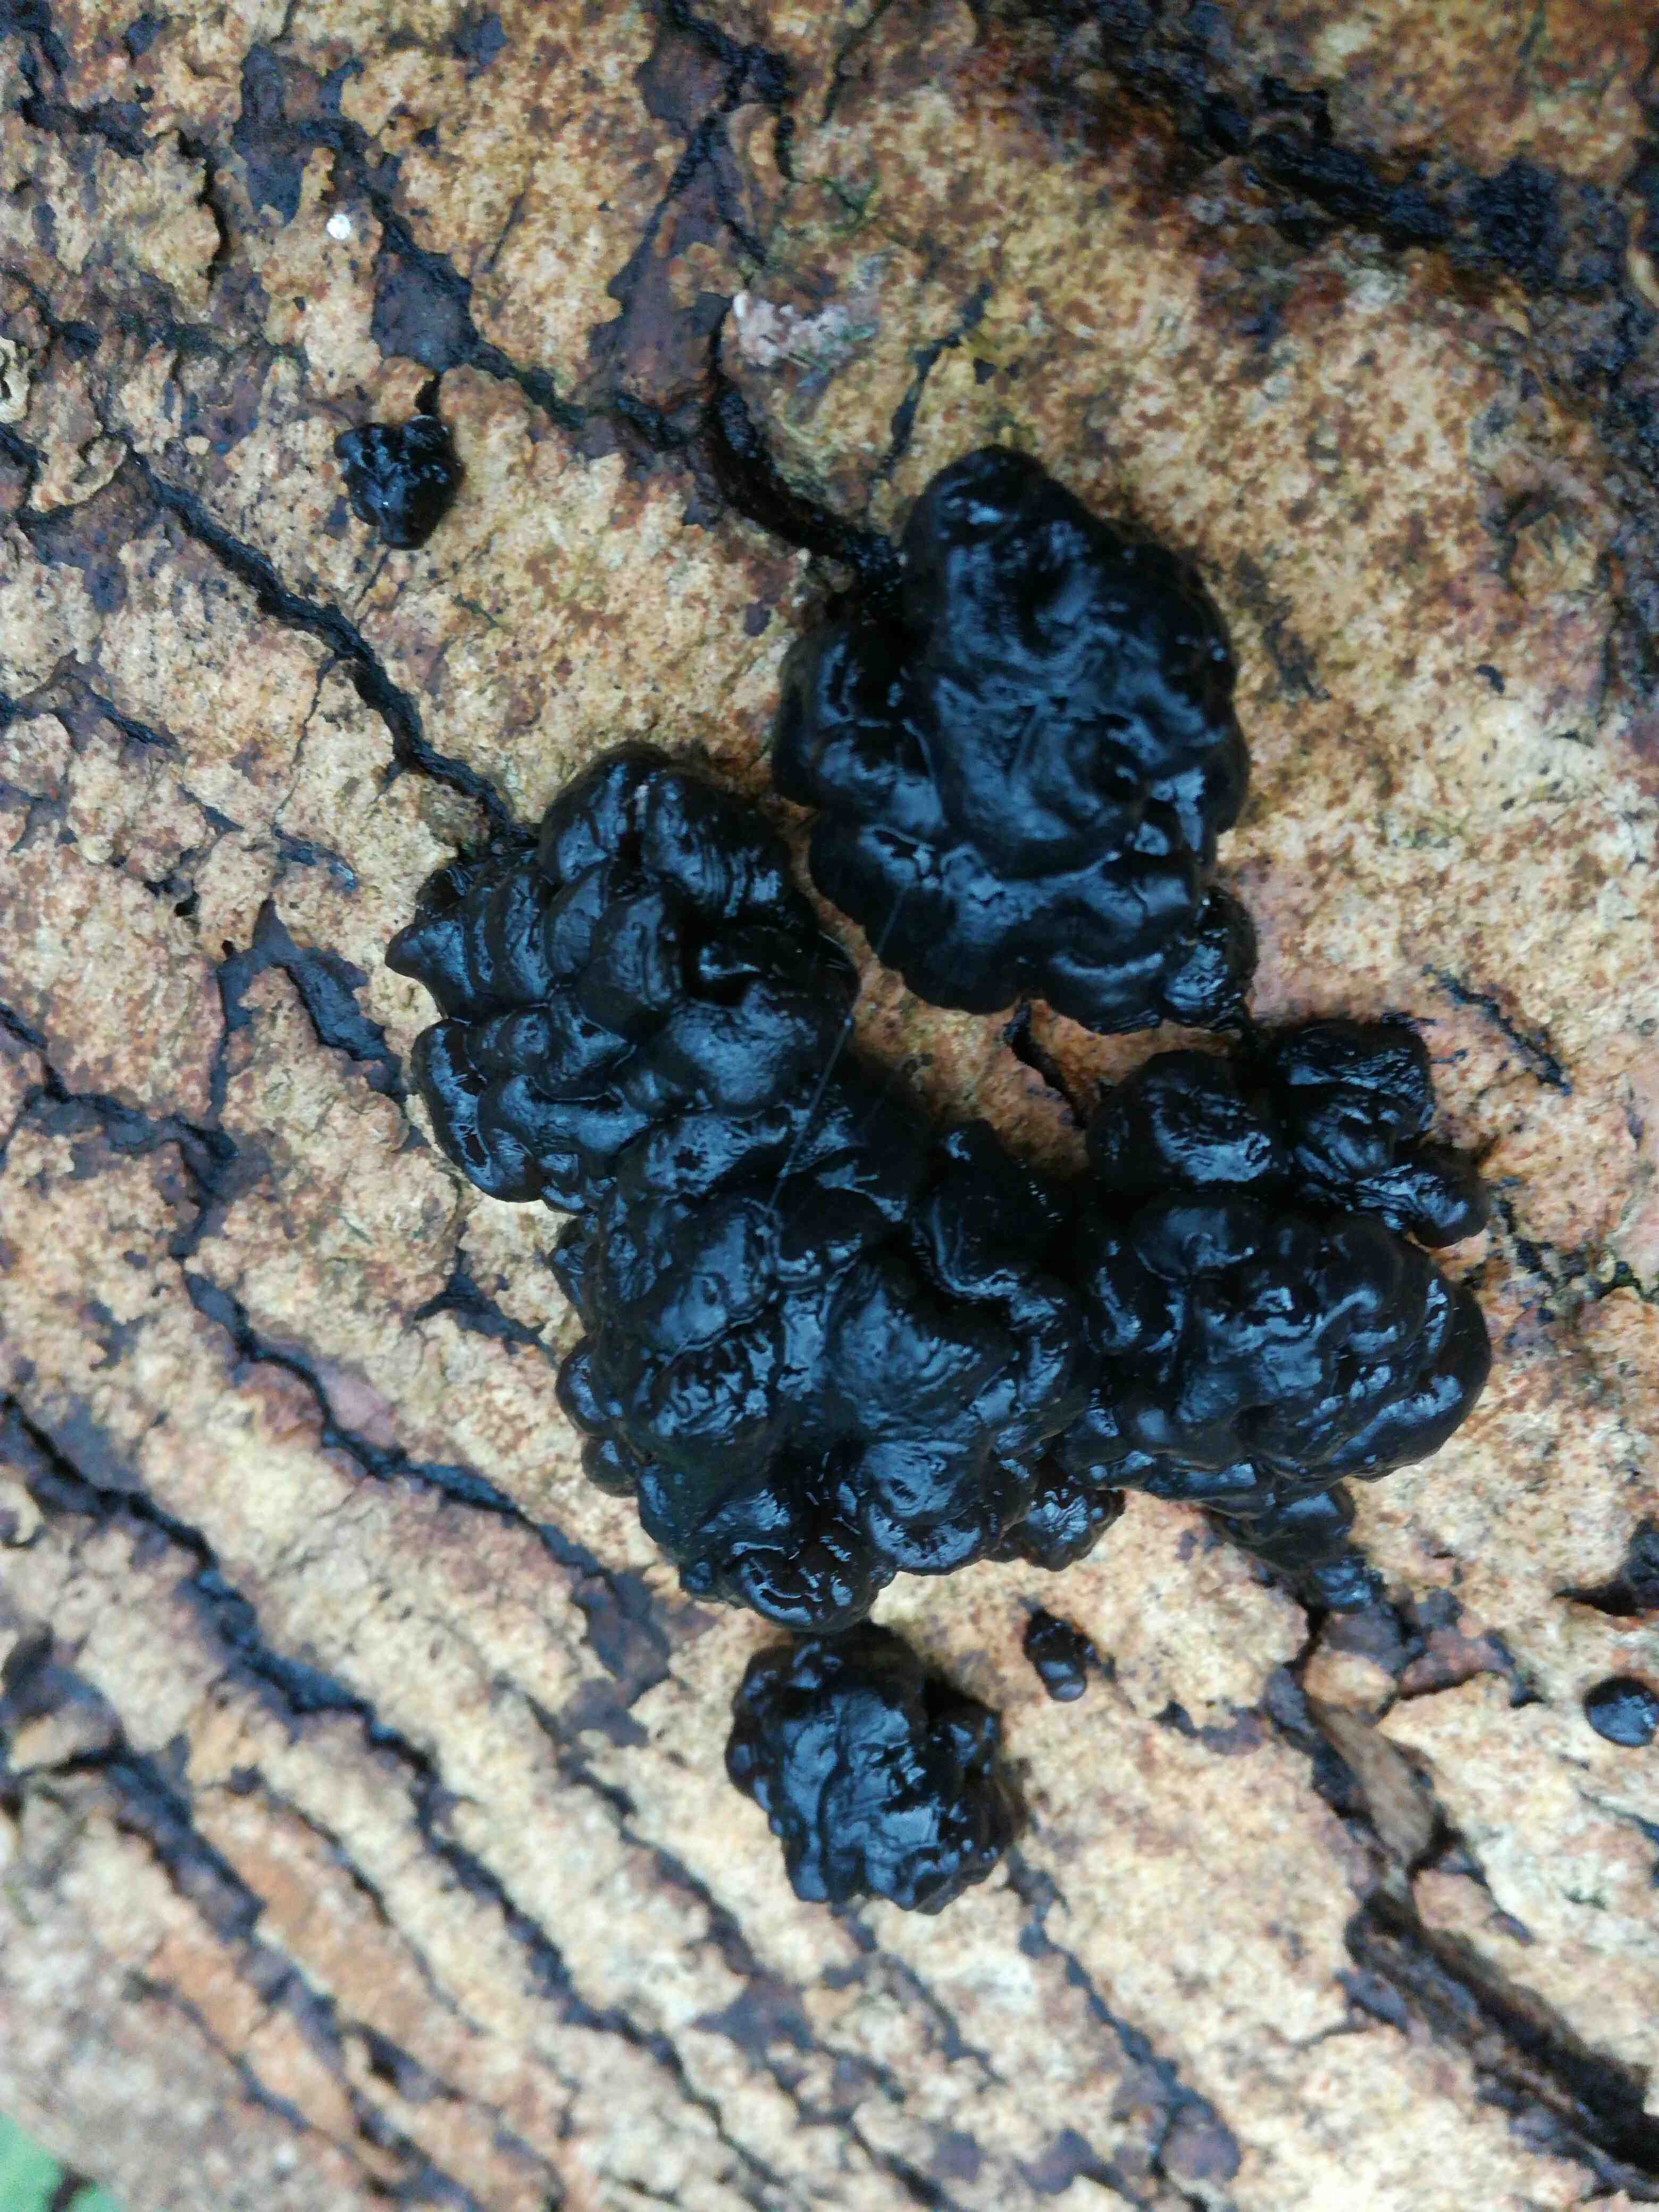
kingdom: Fungi
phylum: Basidiomycota
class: Agaricomycetes
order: Auriculariales
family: Auriculariaceae
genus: Exidia
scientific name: Exidia nigricans
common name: almindelig bævretop
